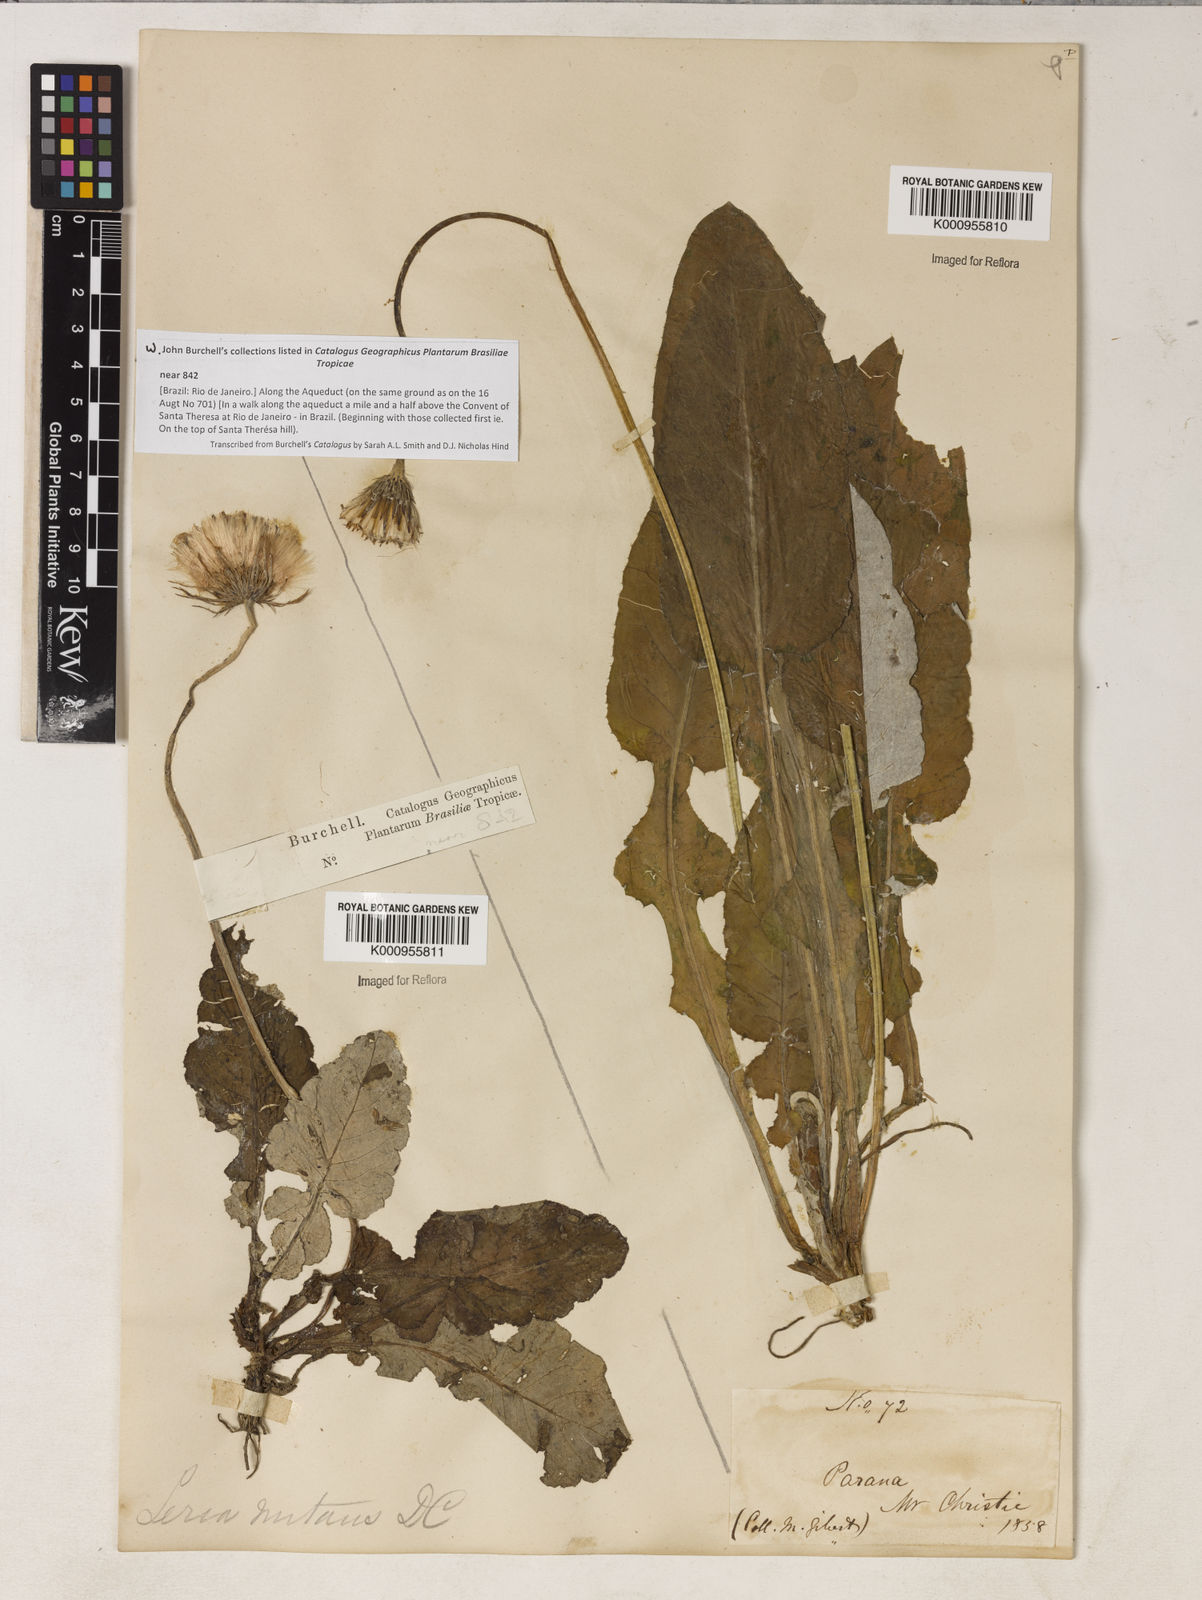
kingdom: Plantae
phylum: Tracheophyta
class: Magnoliopsida
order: Asterales
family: Asteraceae
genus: Chaptalia
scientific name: Chaptalia nutans
